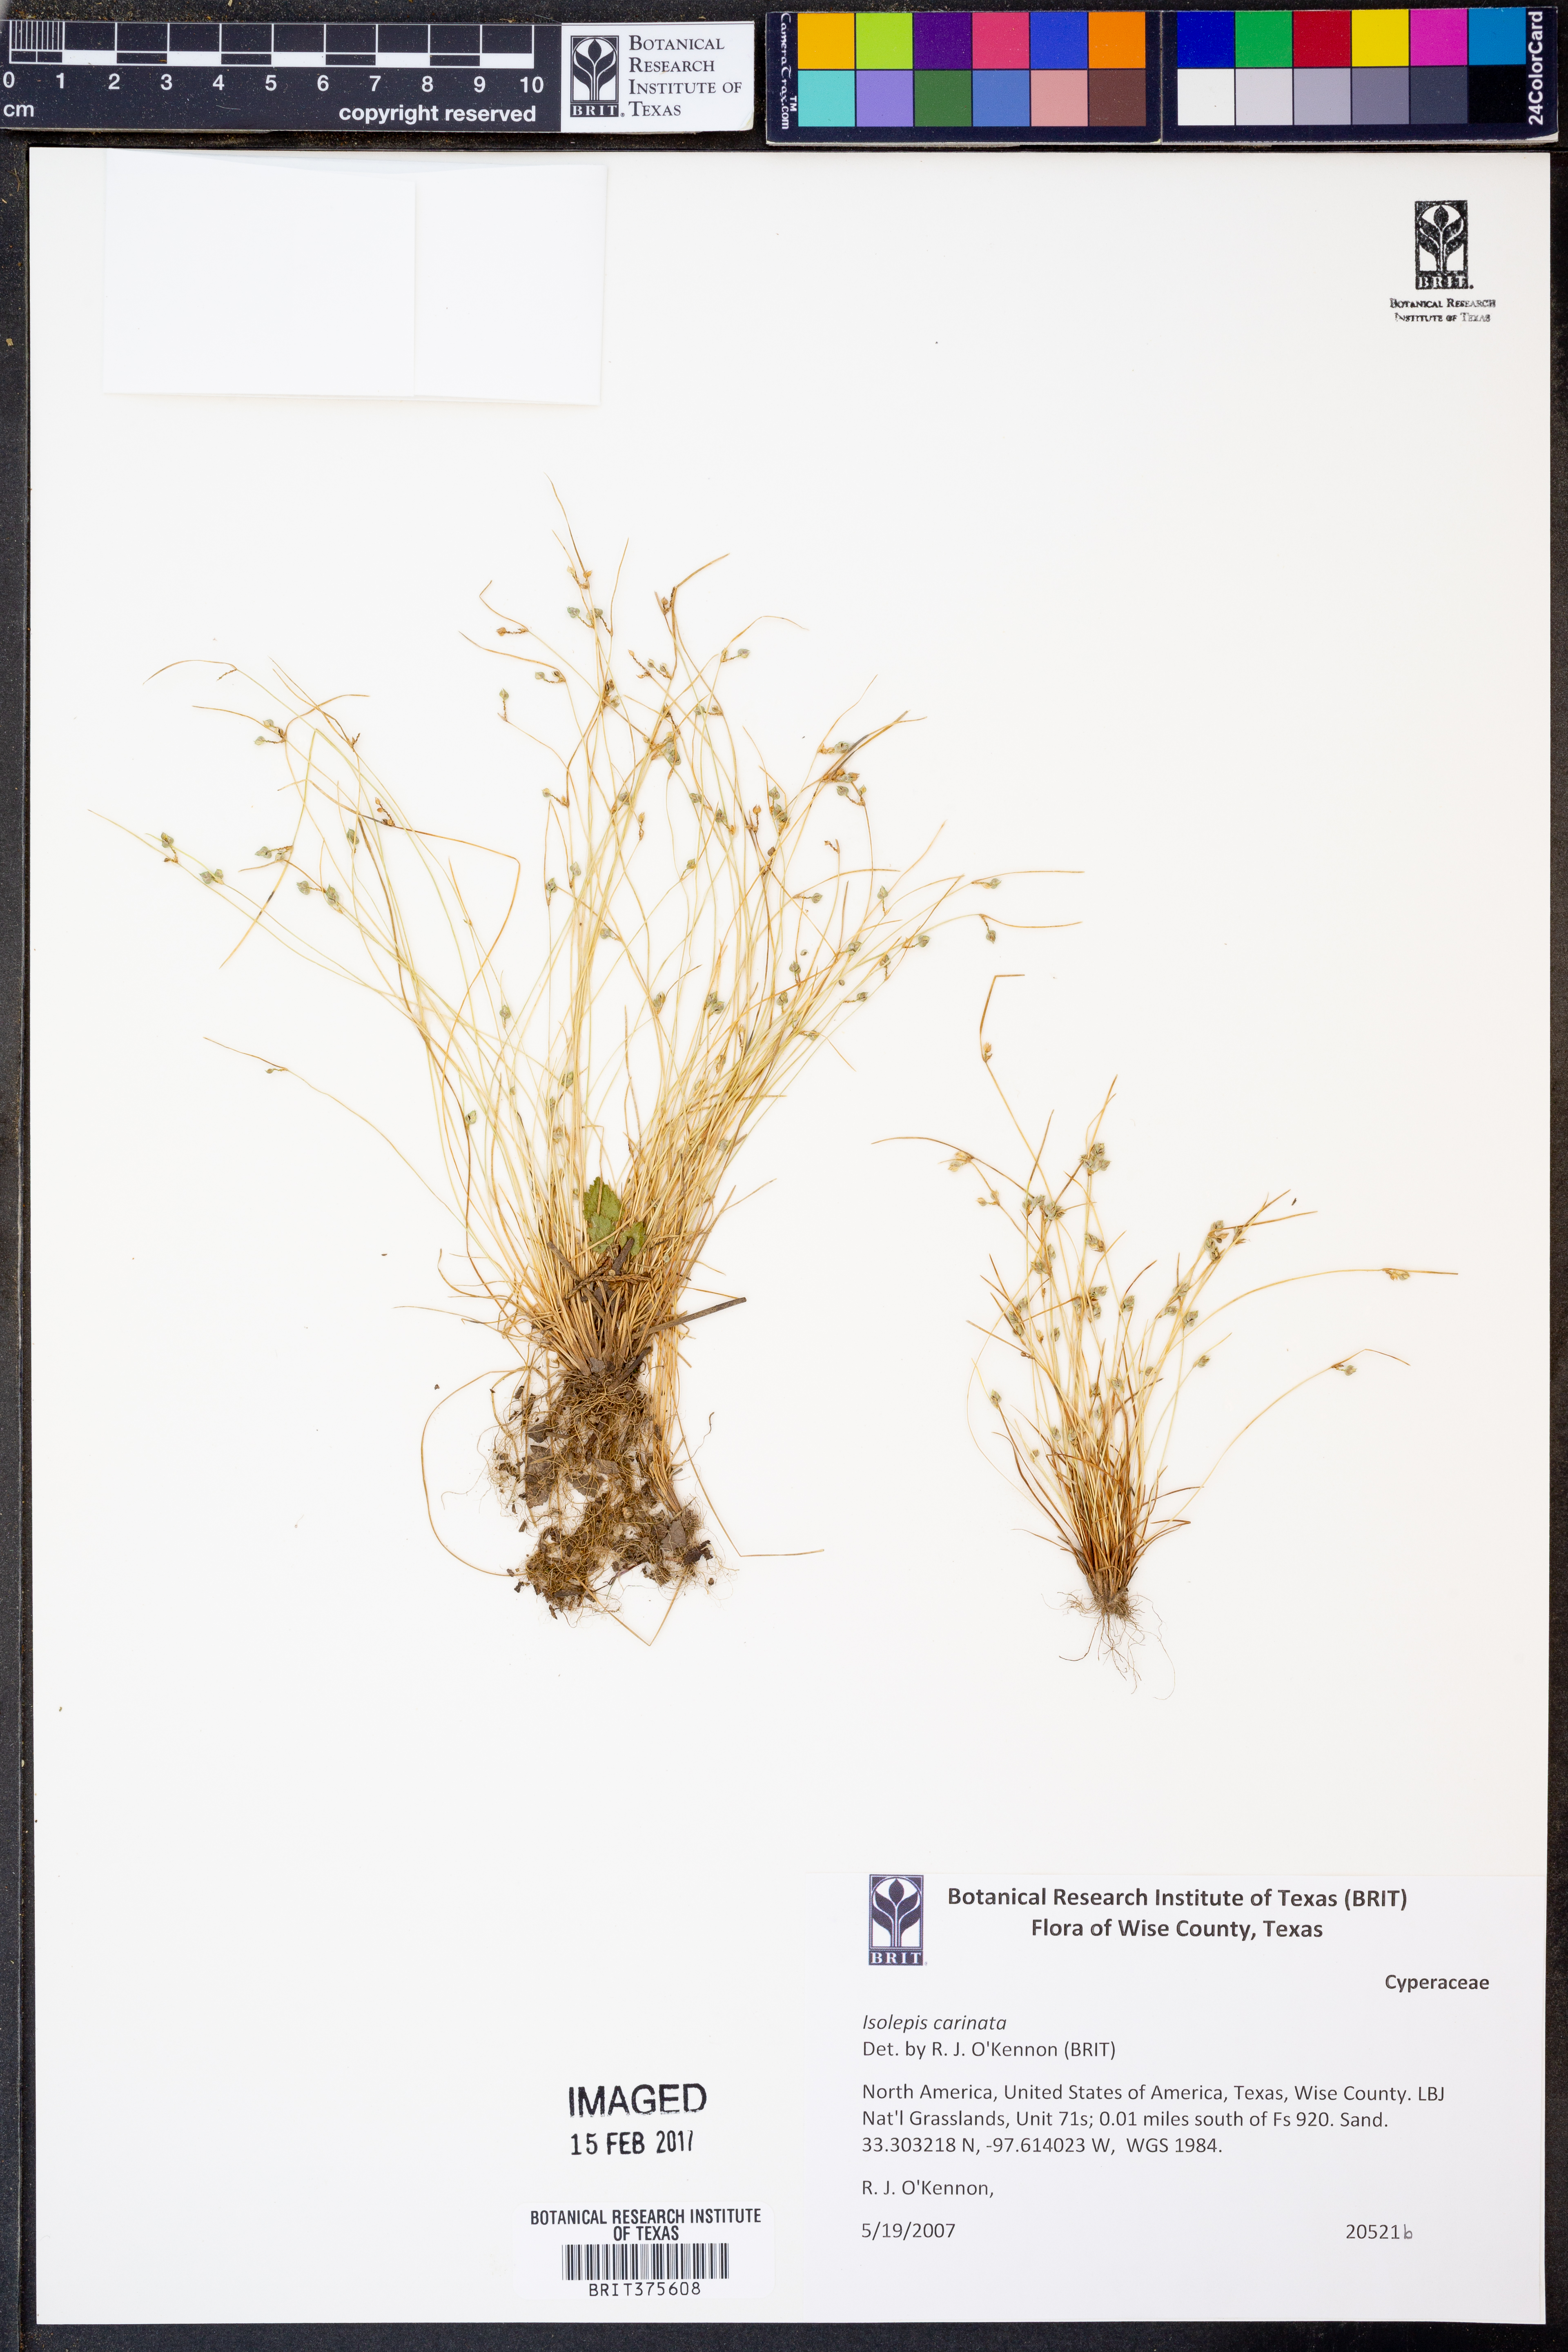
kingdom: Plantae
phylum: Tracheophyta
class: Liliopsida
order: Poales
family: Cyperaceae
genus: Isolepis
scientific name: Isolepis carinata
